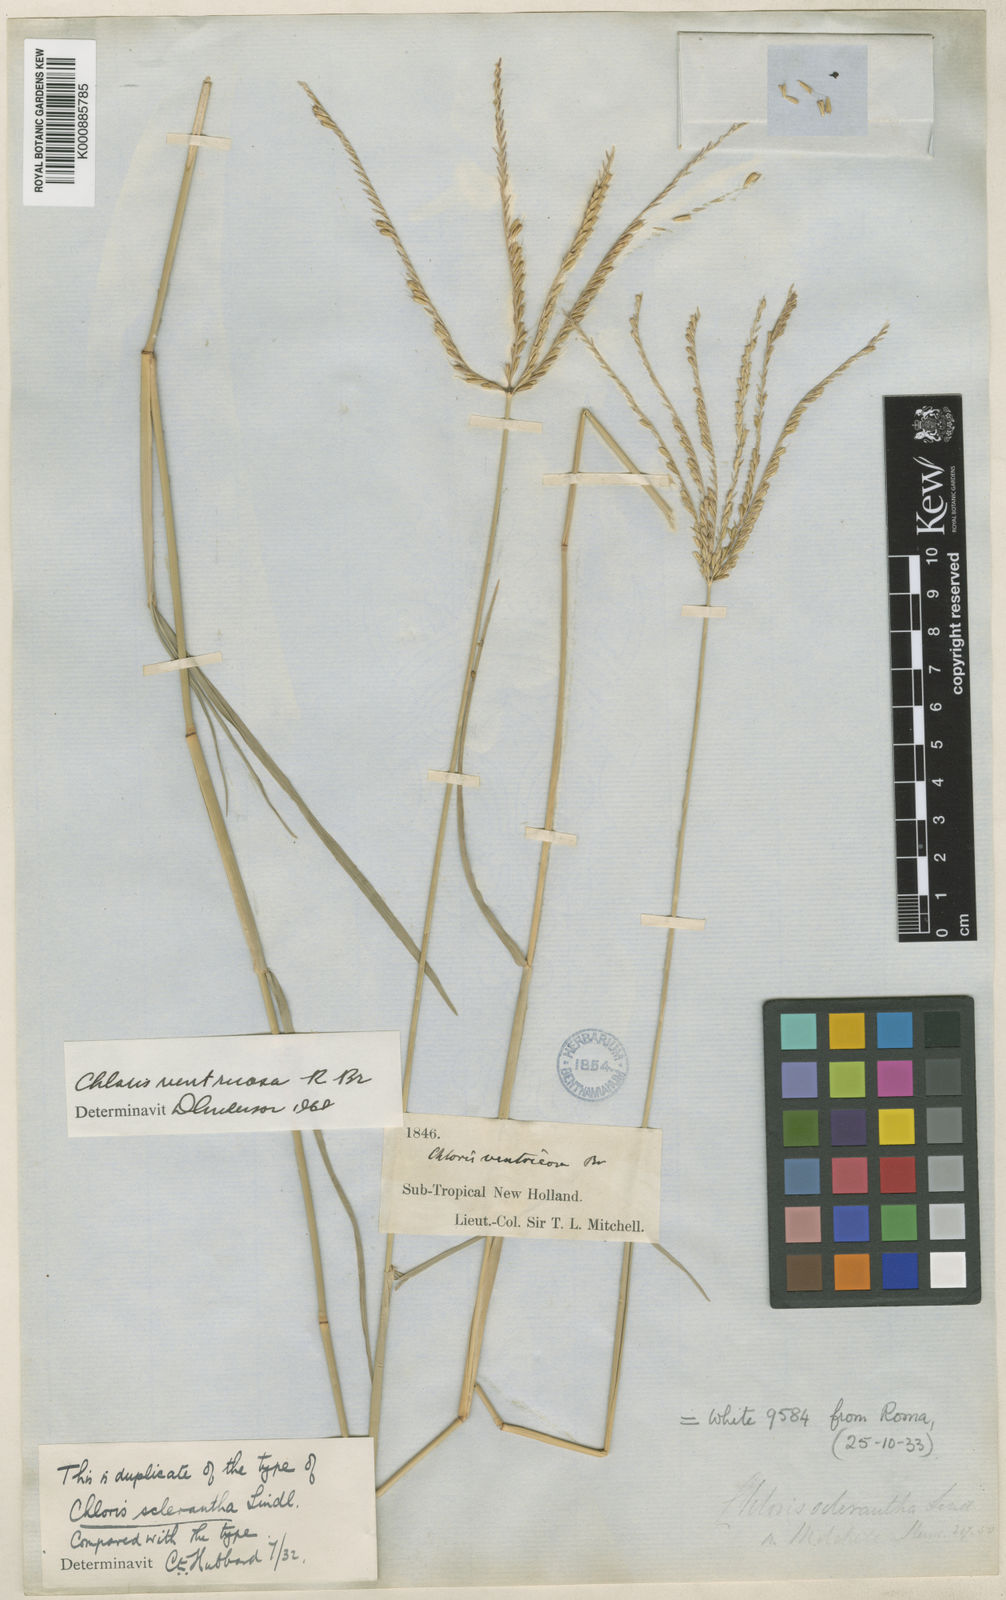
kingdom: Plantae
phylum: Tracheophyta
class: Liliopsida
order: Poales
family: Poaceae
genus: Chloris
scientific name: Chloris ventricosa
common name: Australian windmill grass
